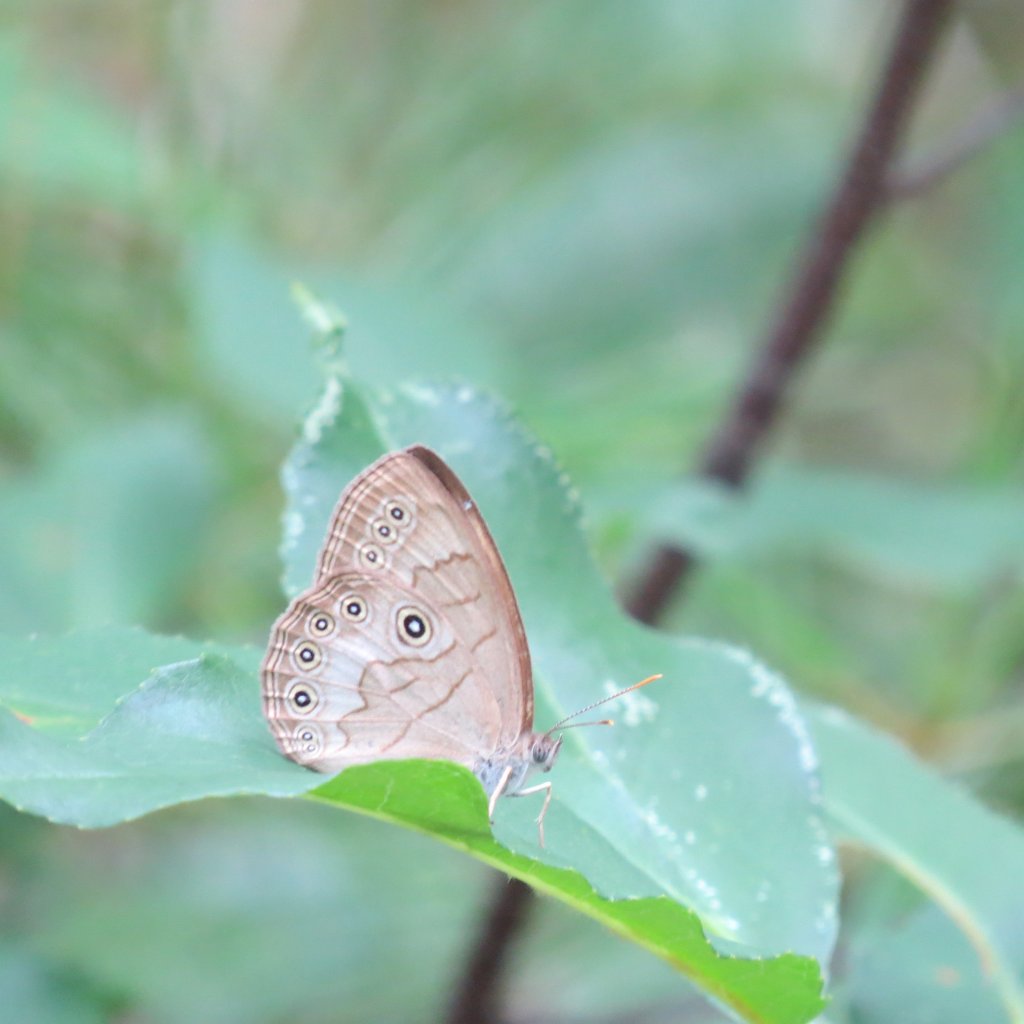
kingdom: Animalia
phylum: Arthropoda
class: Insecta
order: Lepidoptera
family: Nymphalidae
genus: Lethe
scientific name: Lethe eurydice
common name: Appalachian Eyed Brown
